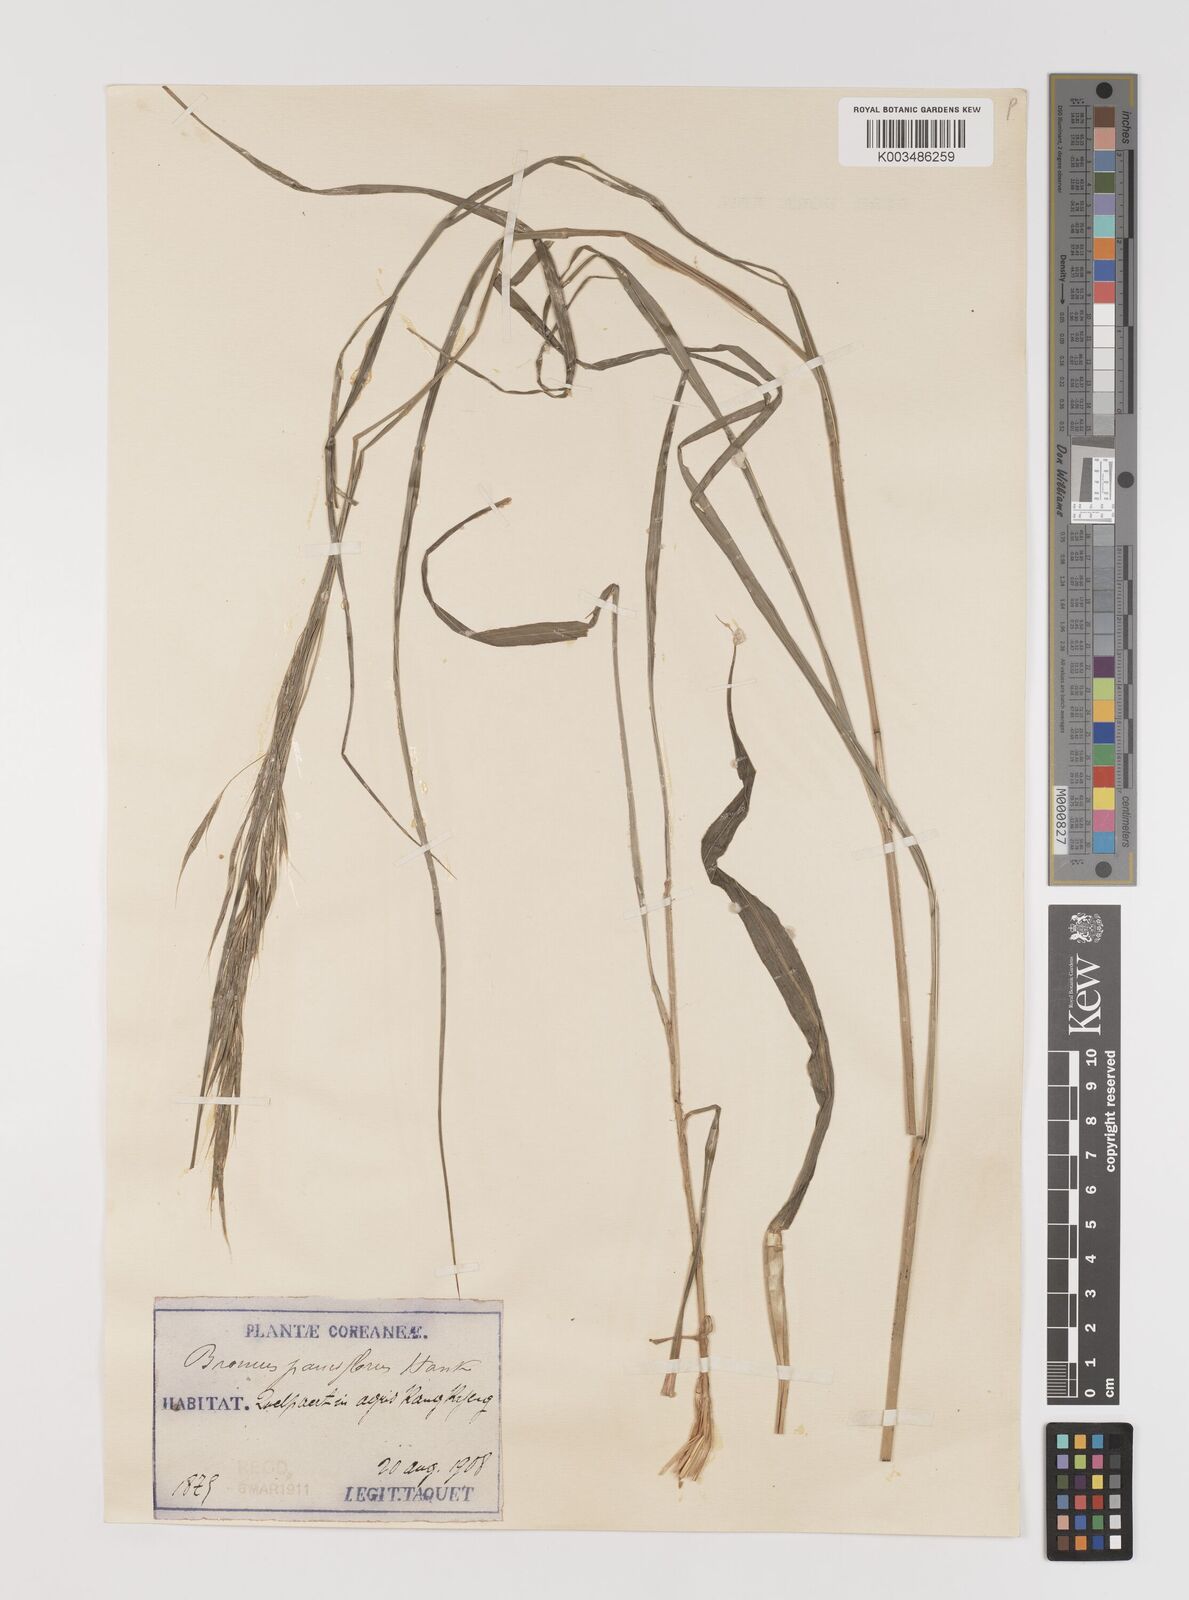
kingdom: Plantae
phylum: Tracheophyta
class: Liliopsida
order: Poales
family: Poaceae
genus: Bromus
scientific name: Bromus remotiflorus
